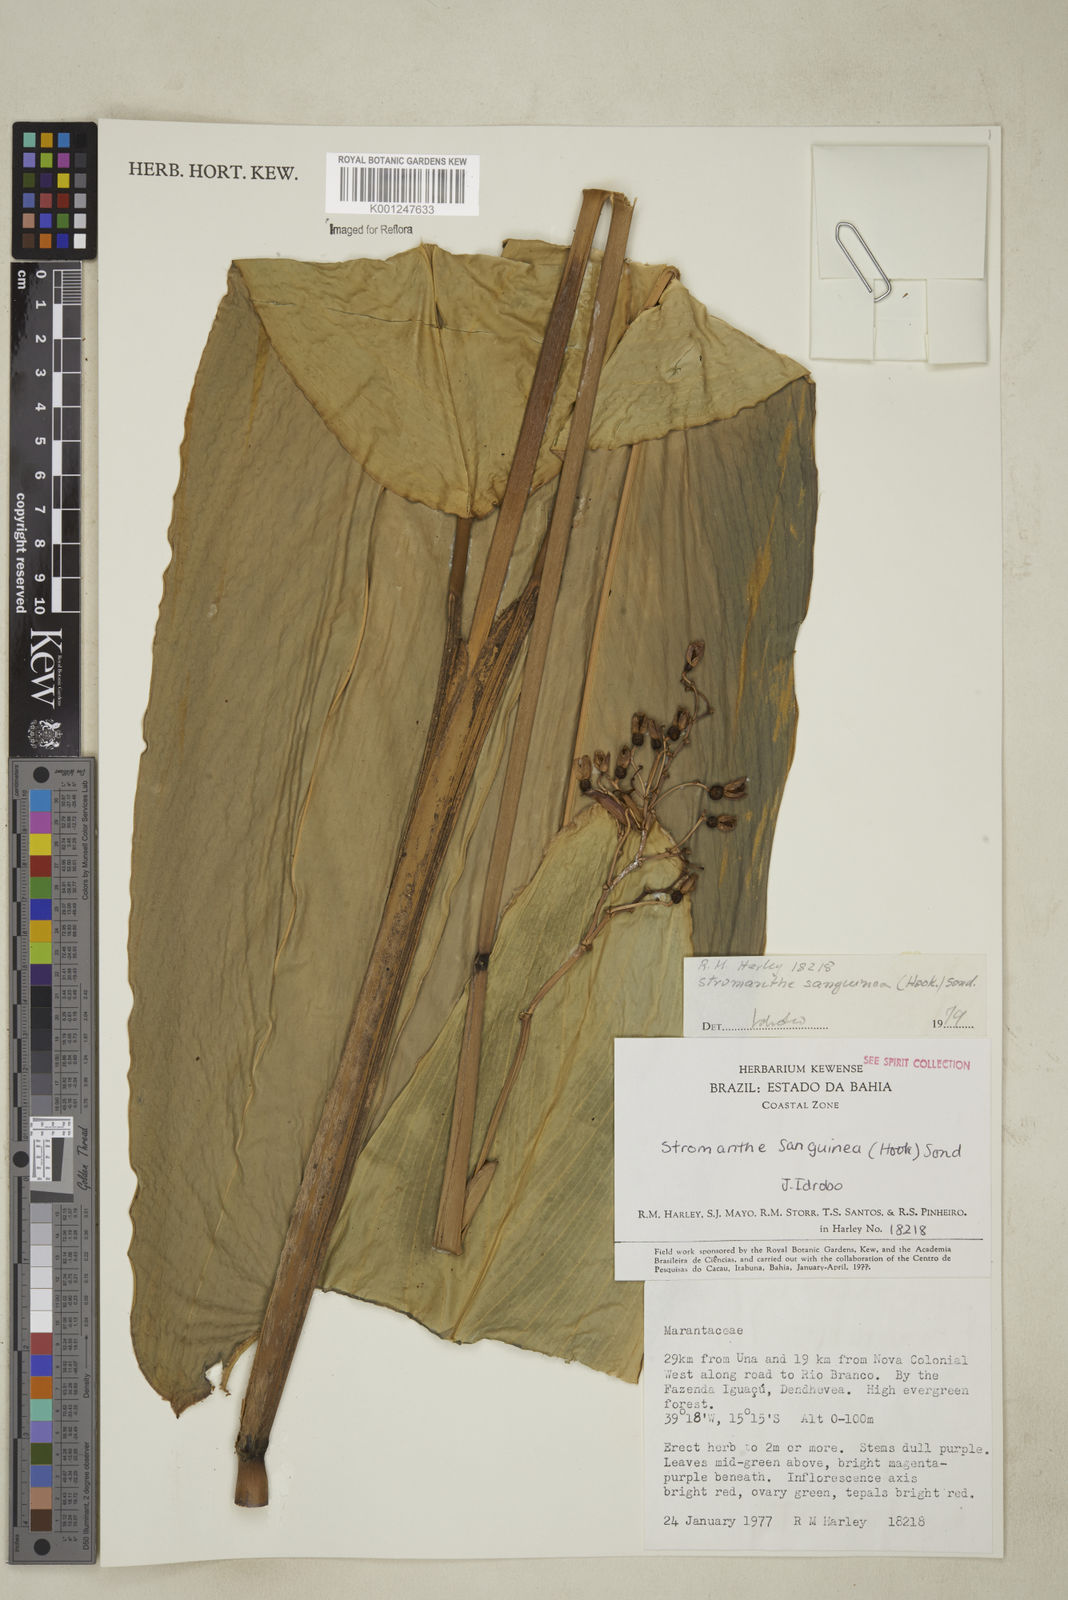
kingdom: Plantae
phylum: Tracheophyta
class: Liliopsida
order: Zingiberales
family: Marantaceae
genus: Stromanthe
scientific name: Stromanthe thalia
